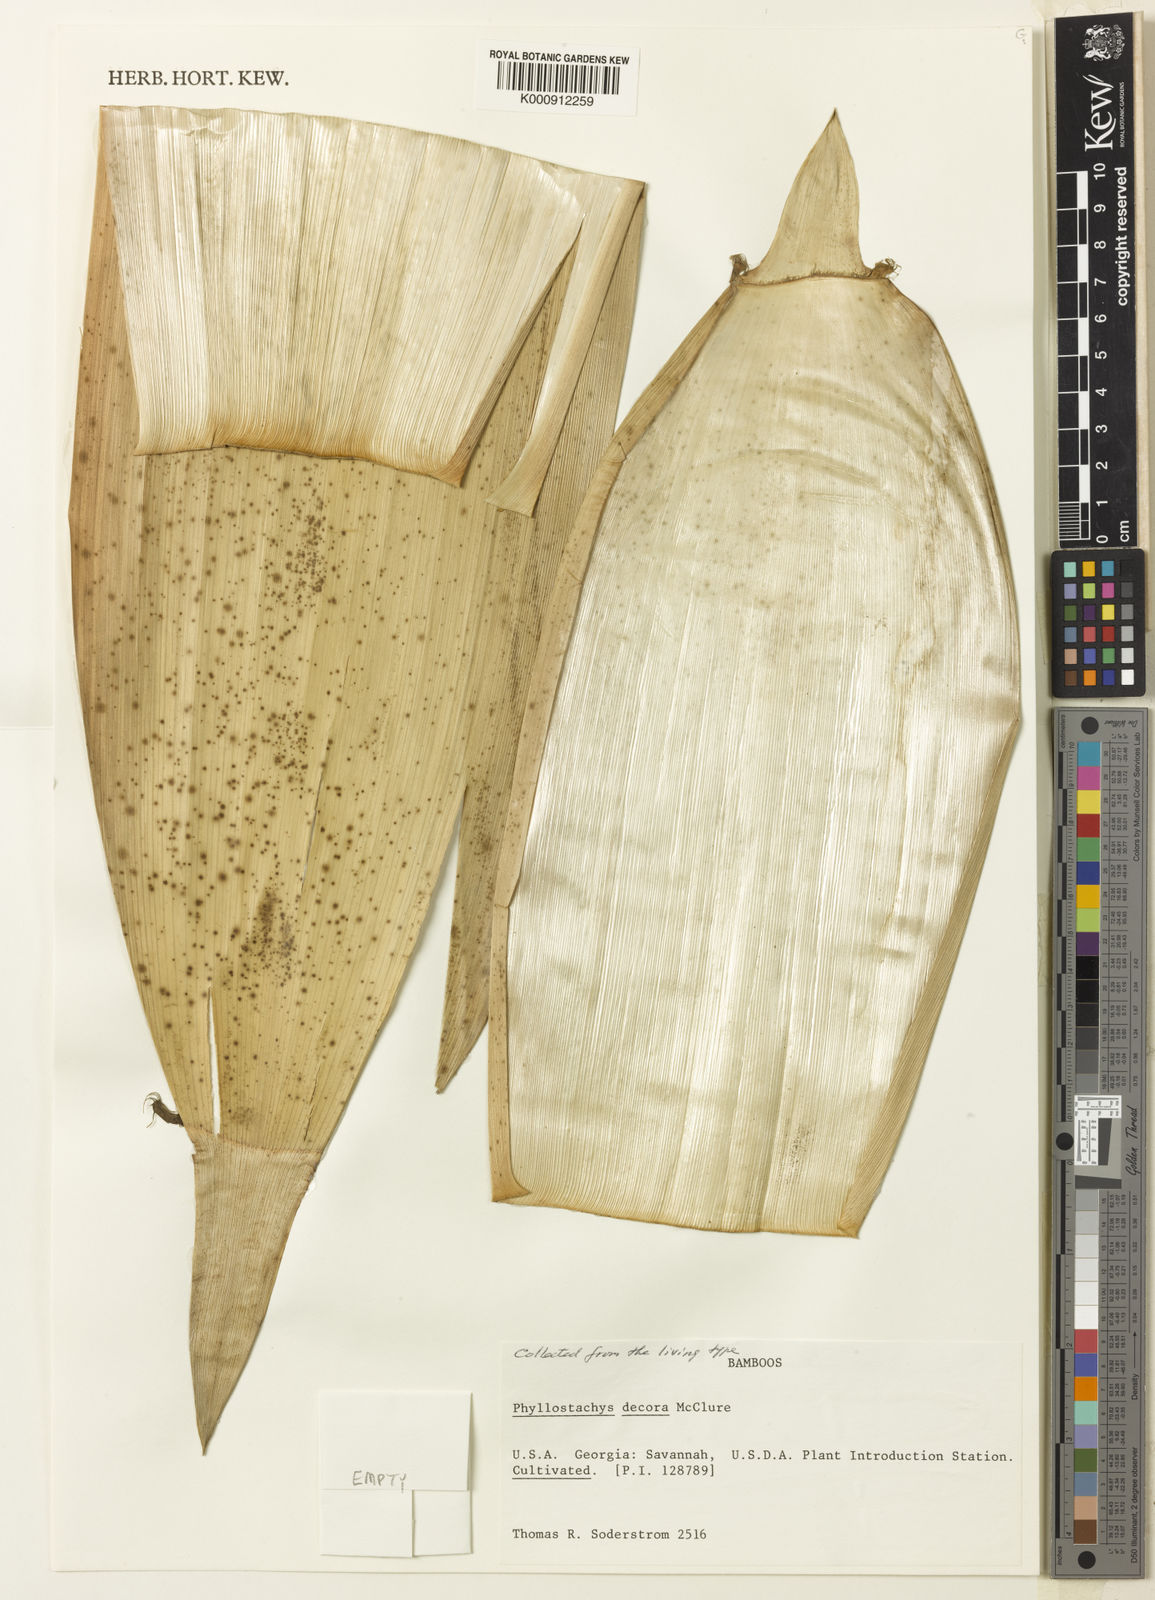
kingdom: Plantae
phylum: Tracheophyta
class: Liliopsida
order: Poales
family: Poaceae
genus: Phyllostachys
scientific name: Phyllostachys mannii
